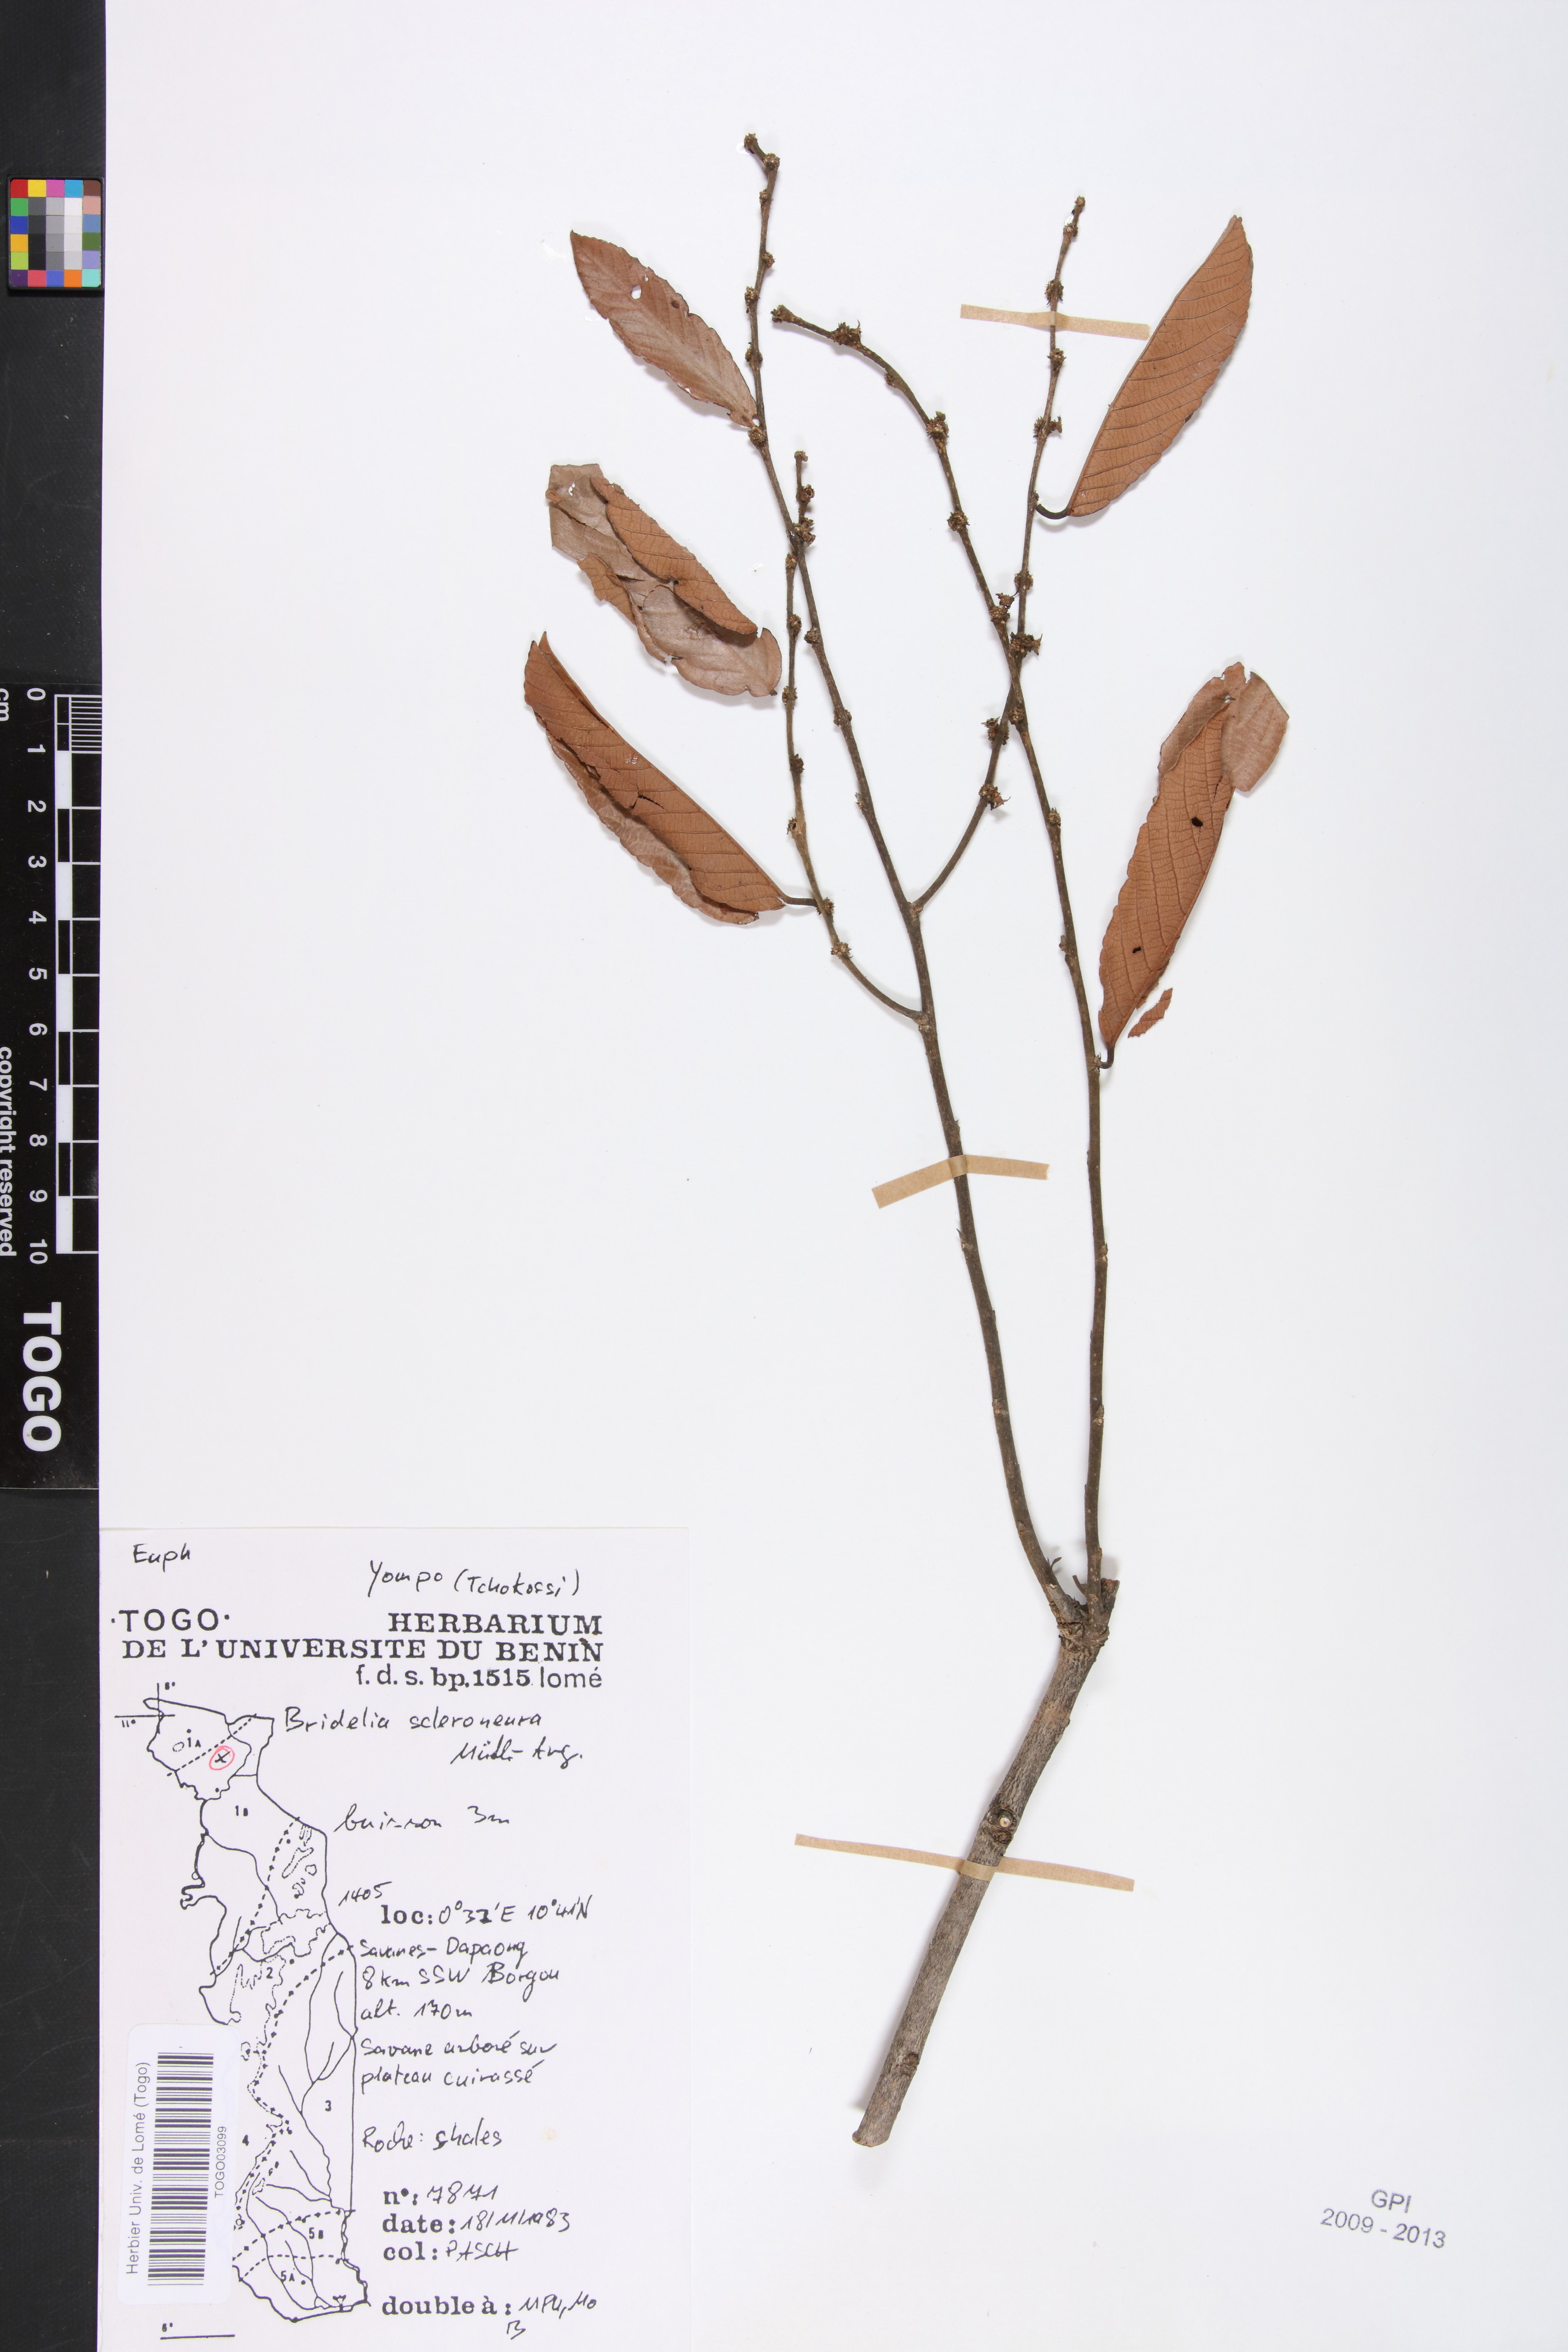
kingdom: Plantae
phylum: Tracheophyta
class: Magnoliopsida
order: Malpighiales
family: Phyllanthaceae
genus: Bridelia
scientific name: Bridelia scleroneura
